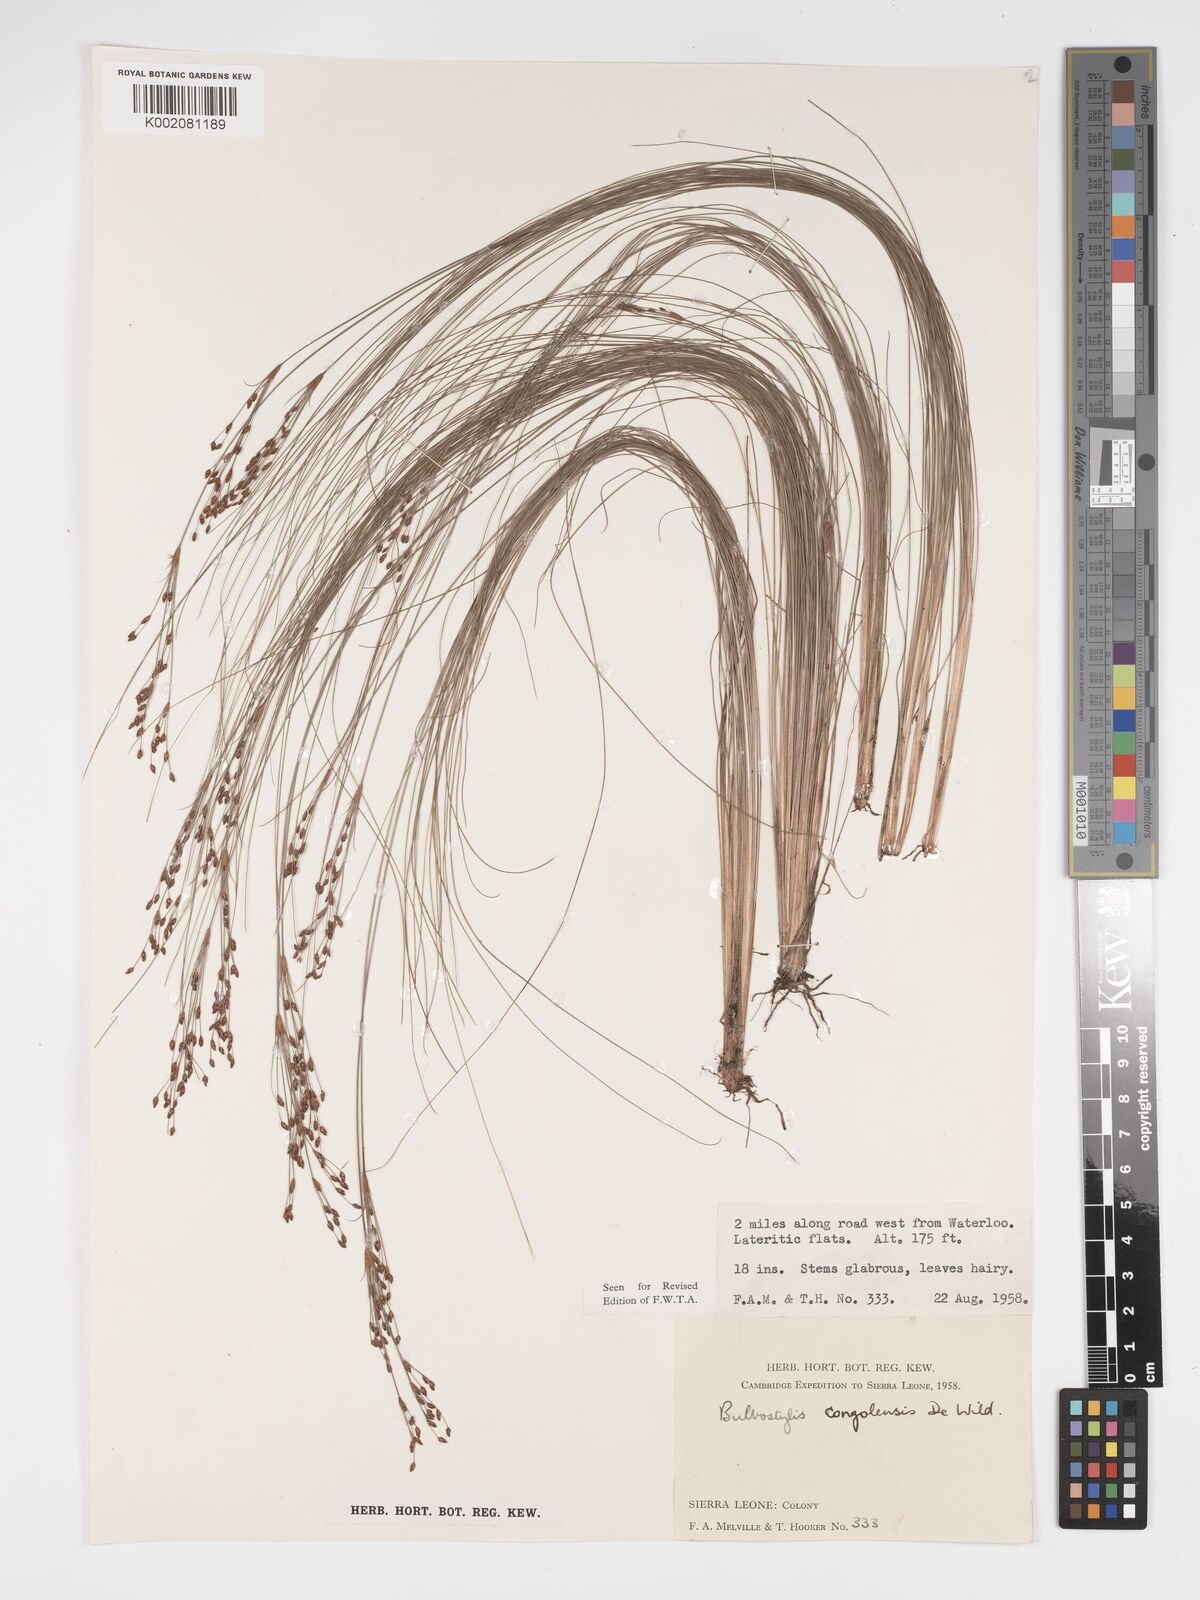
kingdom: Plantae
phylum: Tracheophyta
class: Liliopsida
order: Poales
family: Cyperaceae
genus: Bulbostylis
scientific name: Bulbostylis congolensis
